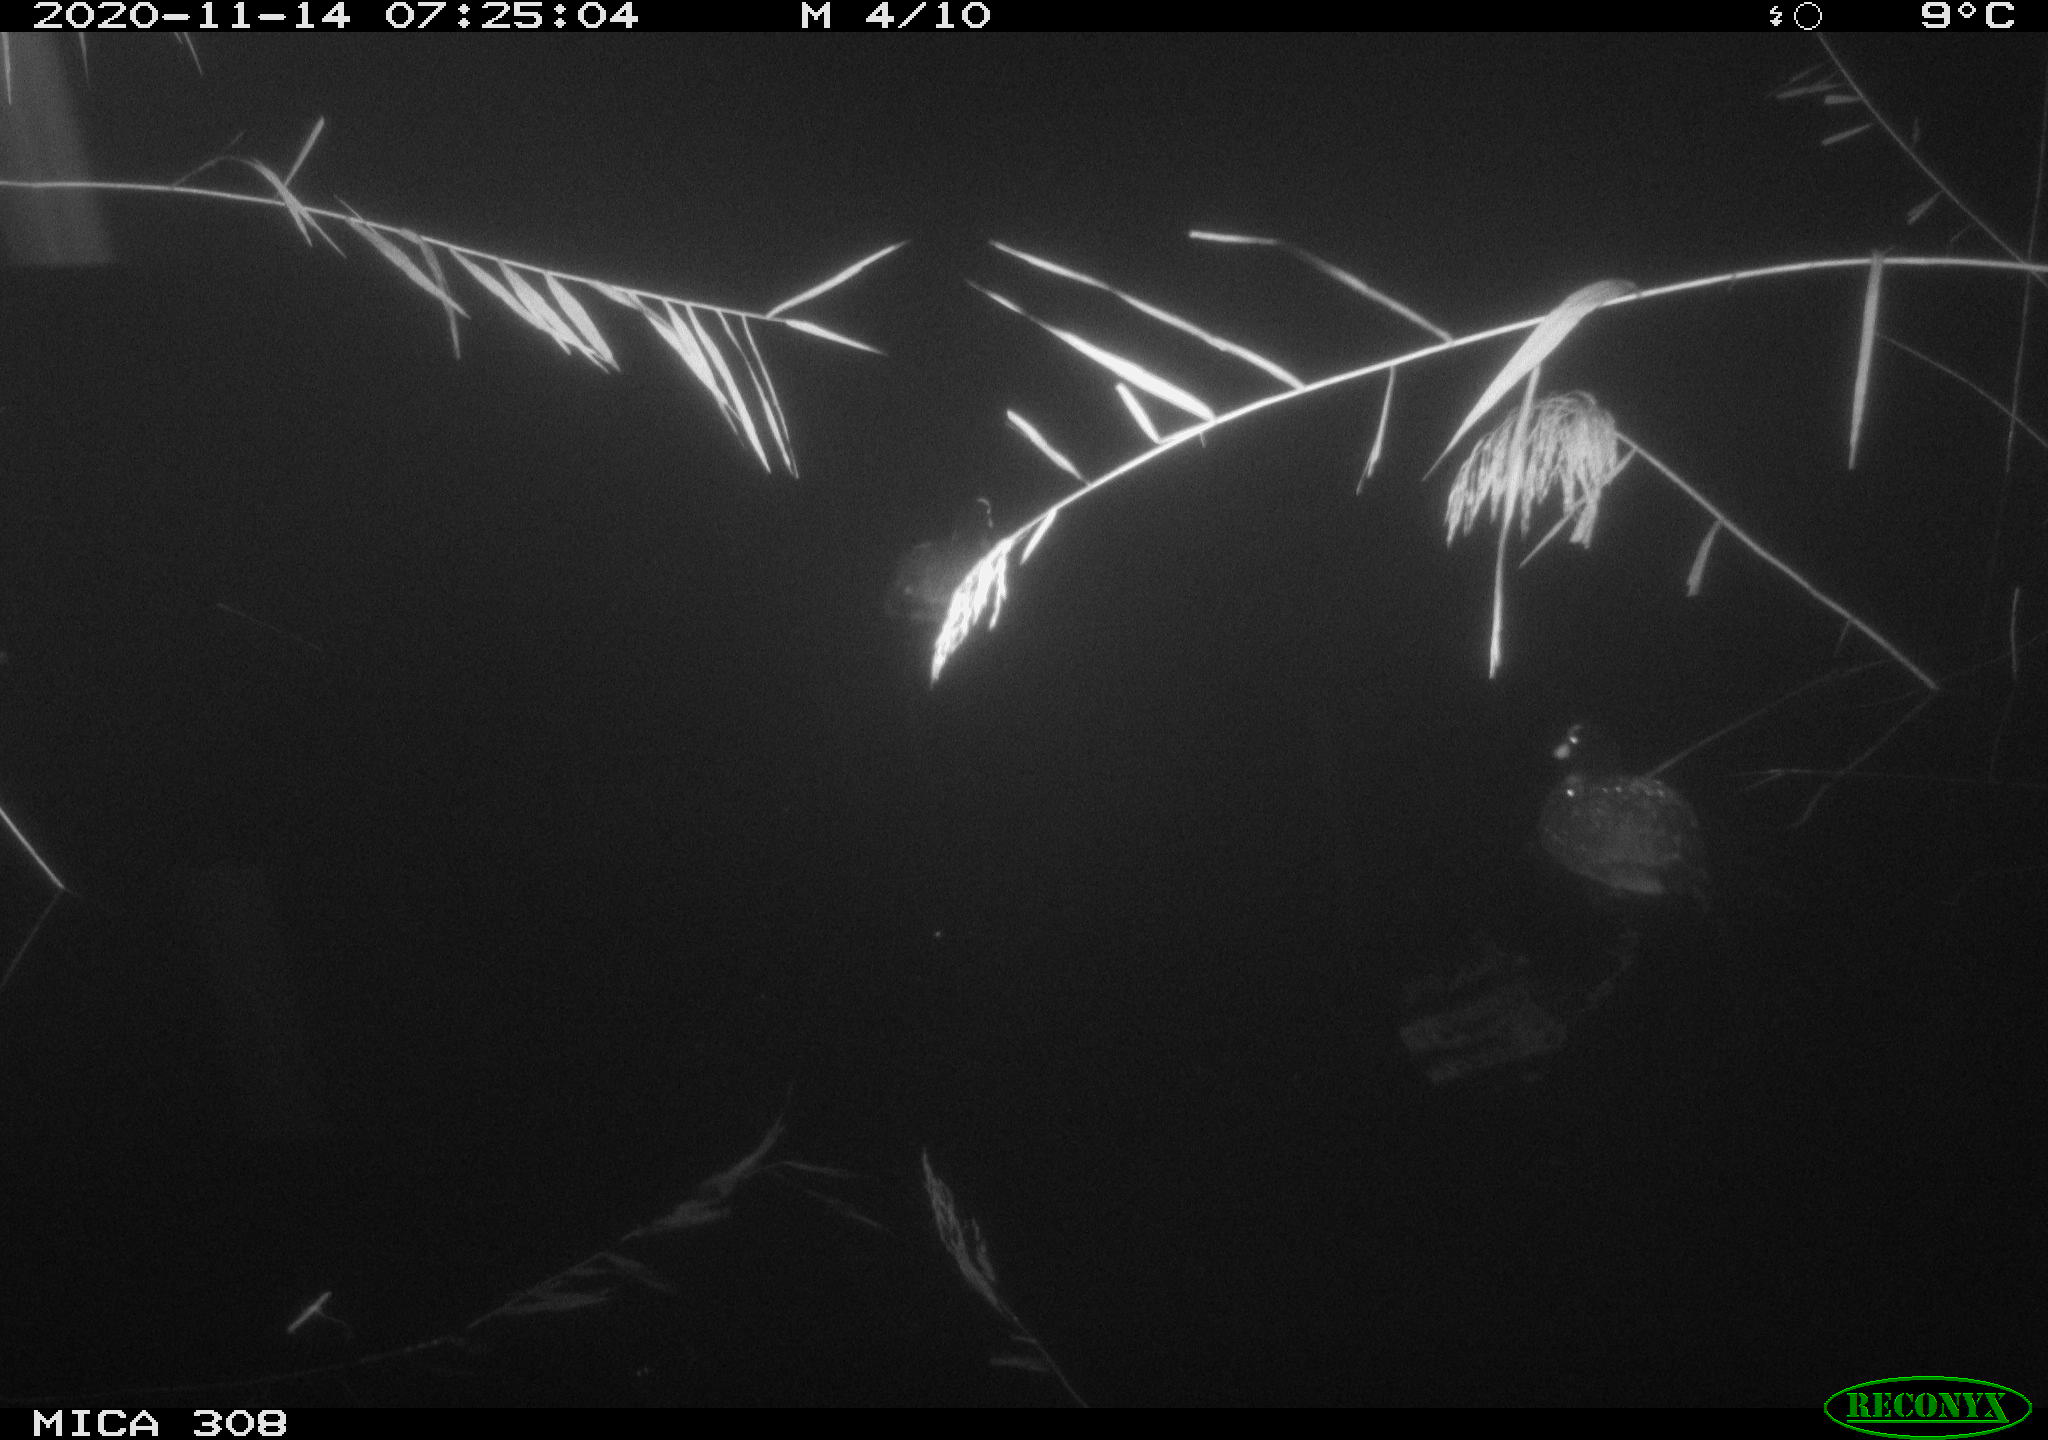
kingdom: Animalia
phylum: Chordata
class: Aves
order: Gruiformes
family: Rallidae
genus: Fulica
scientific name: Fulica atra
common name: Eurasian coot
